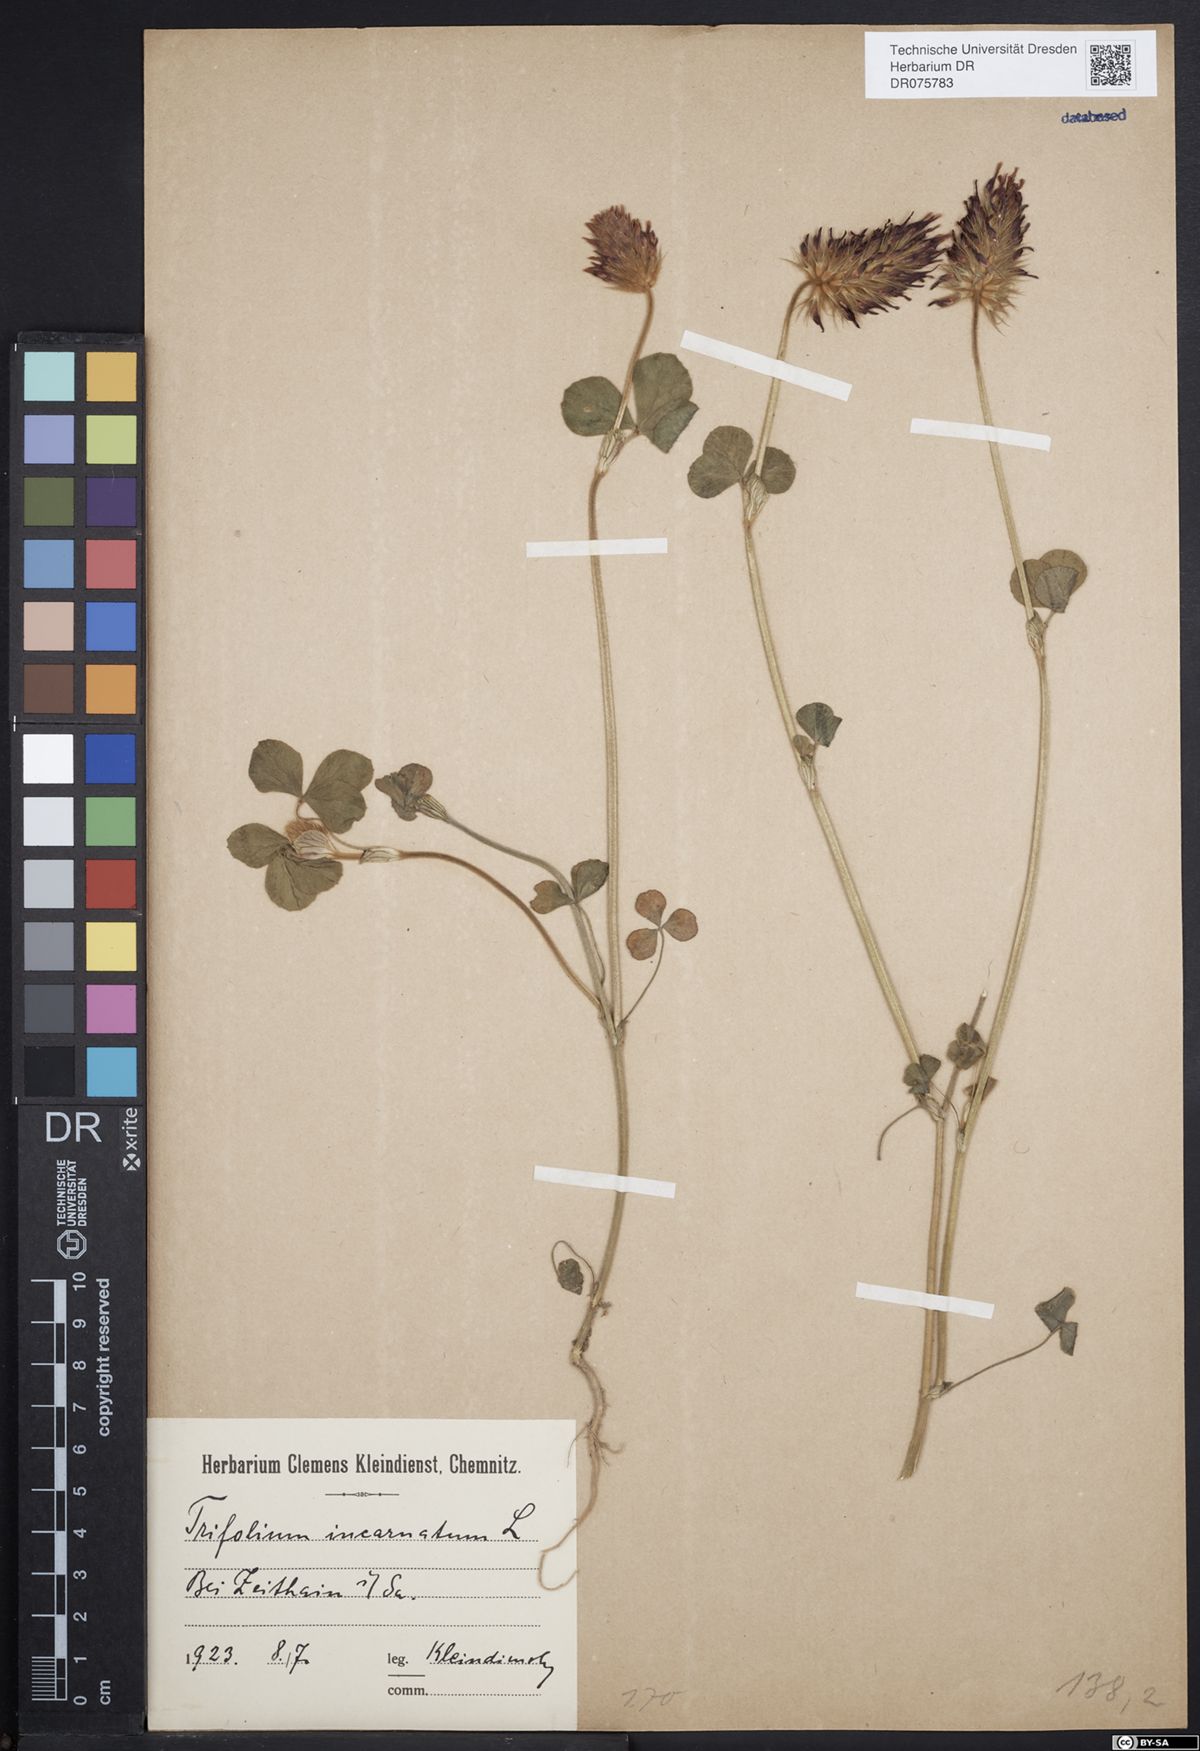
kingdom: Plantae
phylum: Tracheophyta
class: Magnoliopsida
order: Fabales
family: Fabaceae
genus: Trifolium
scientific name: Trifolium incarnatum
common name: Crimson clover
